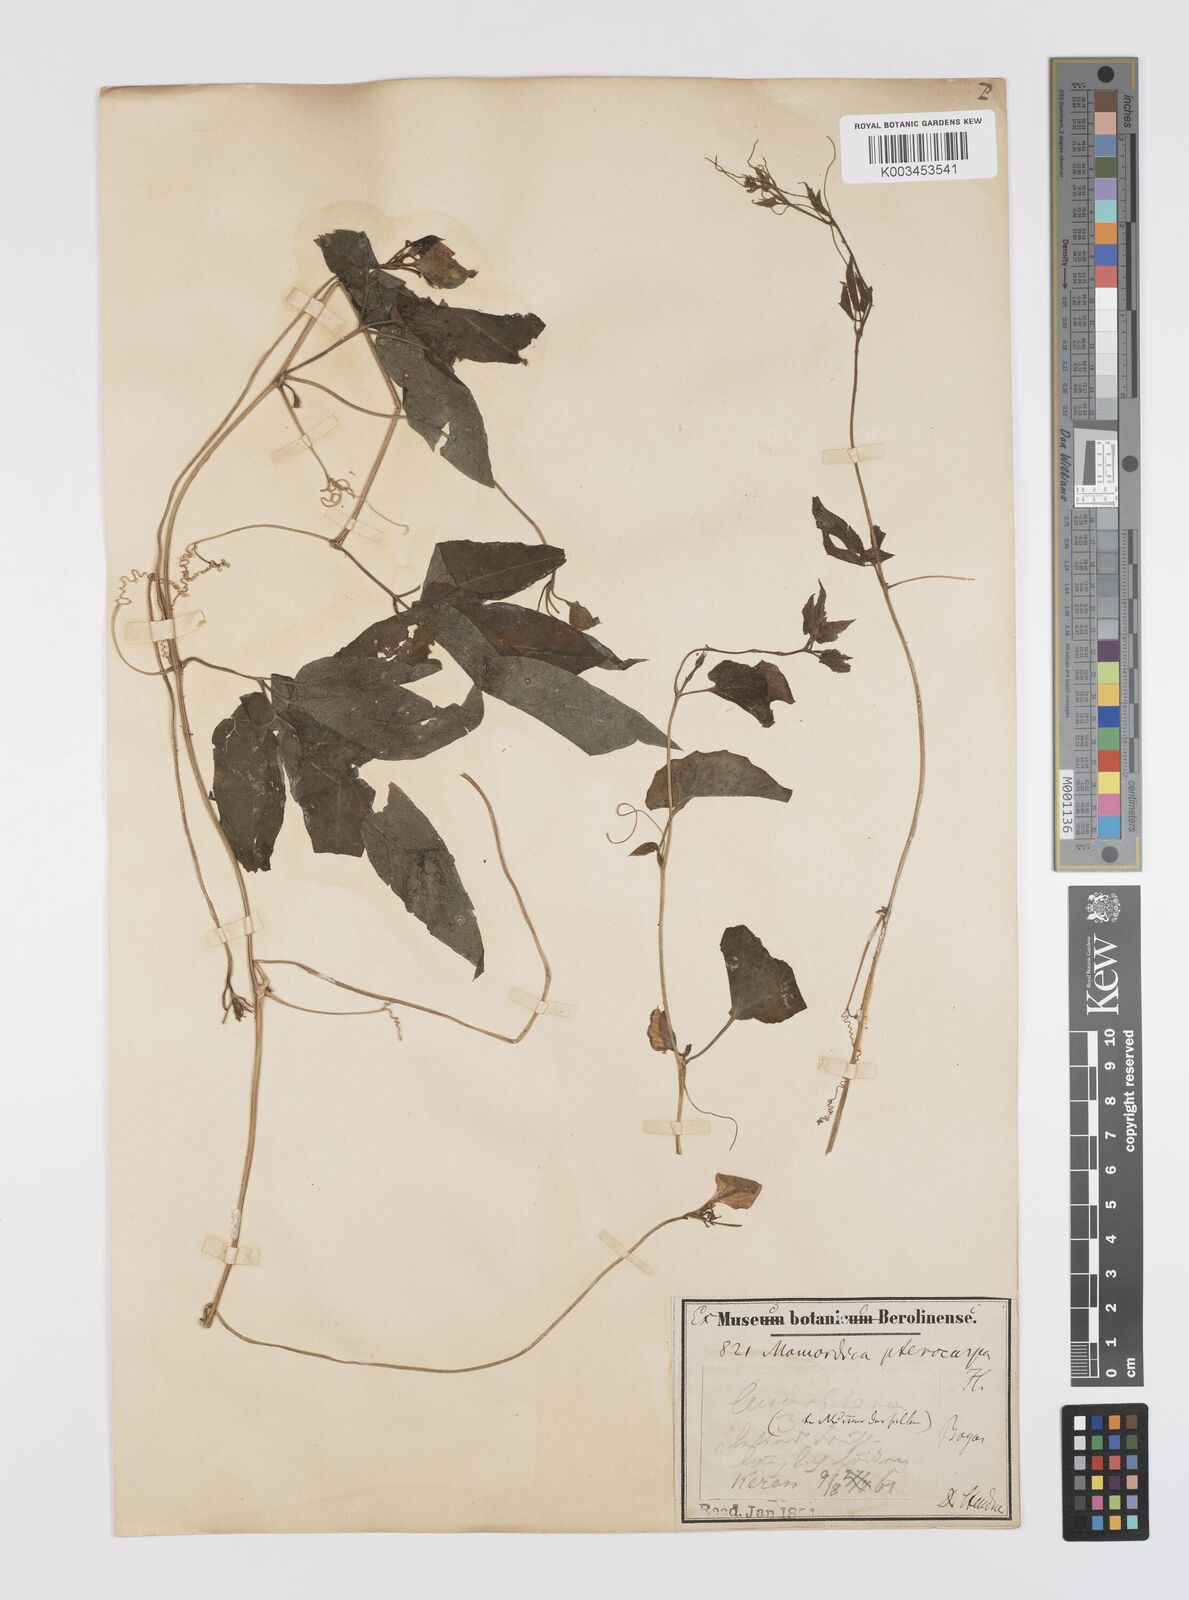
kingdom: Plantae
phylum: Tracheophyta
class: Magnoliopsida
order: Cucurbitales
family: Cucurbitaceae
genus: Momordica
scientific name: Momordica pterocarpa
